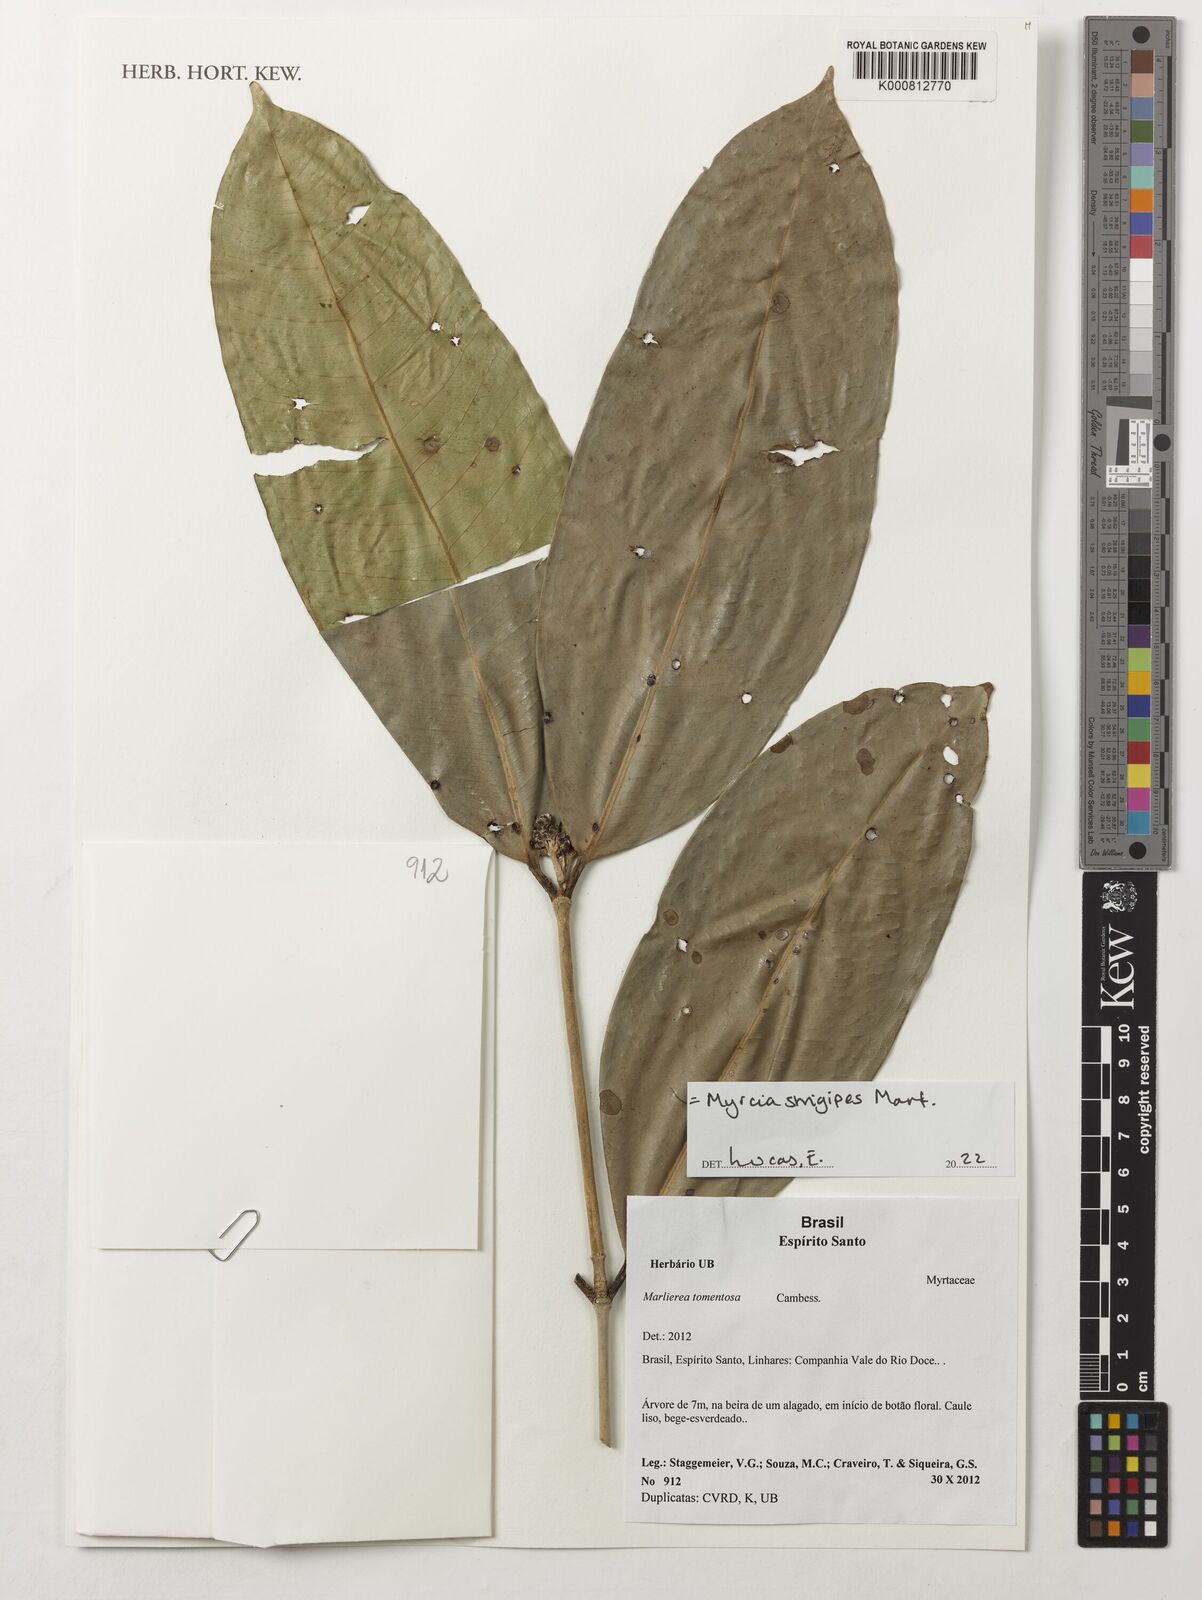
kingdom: Plantae
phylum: Tracheophyta
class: Magnoliopsida
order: Myrtales
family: Myrtaceae
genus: Myrcia
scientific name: Myrcia strigipes
